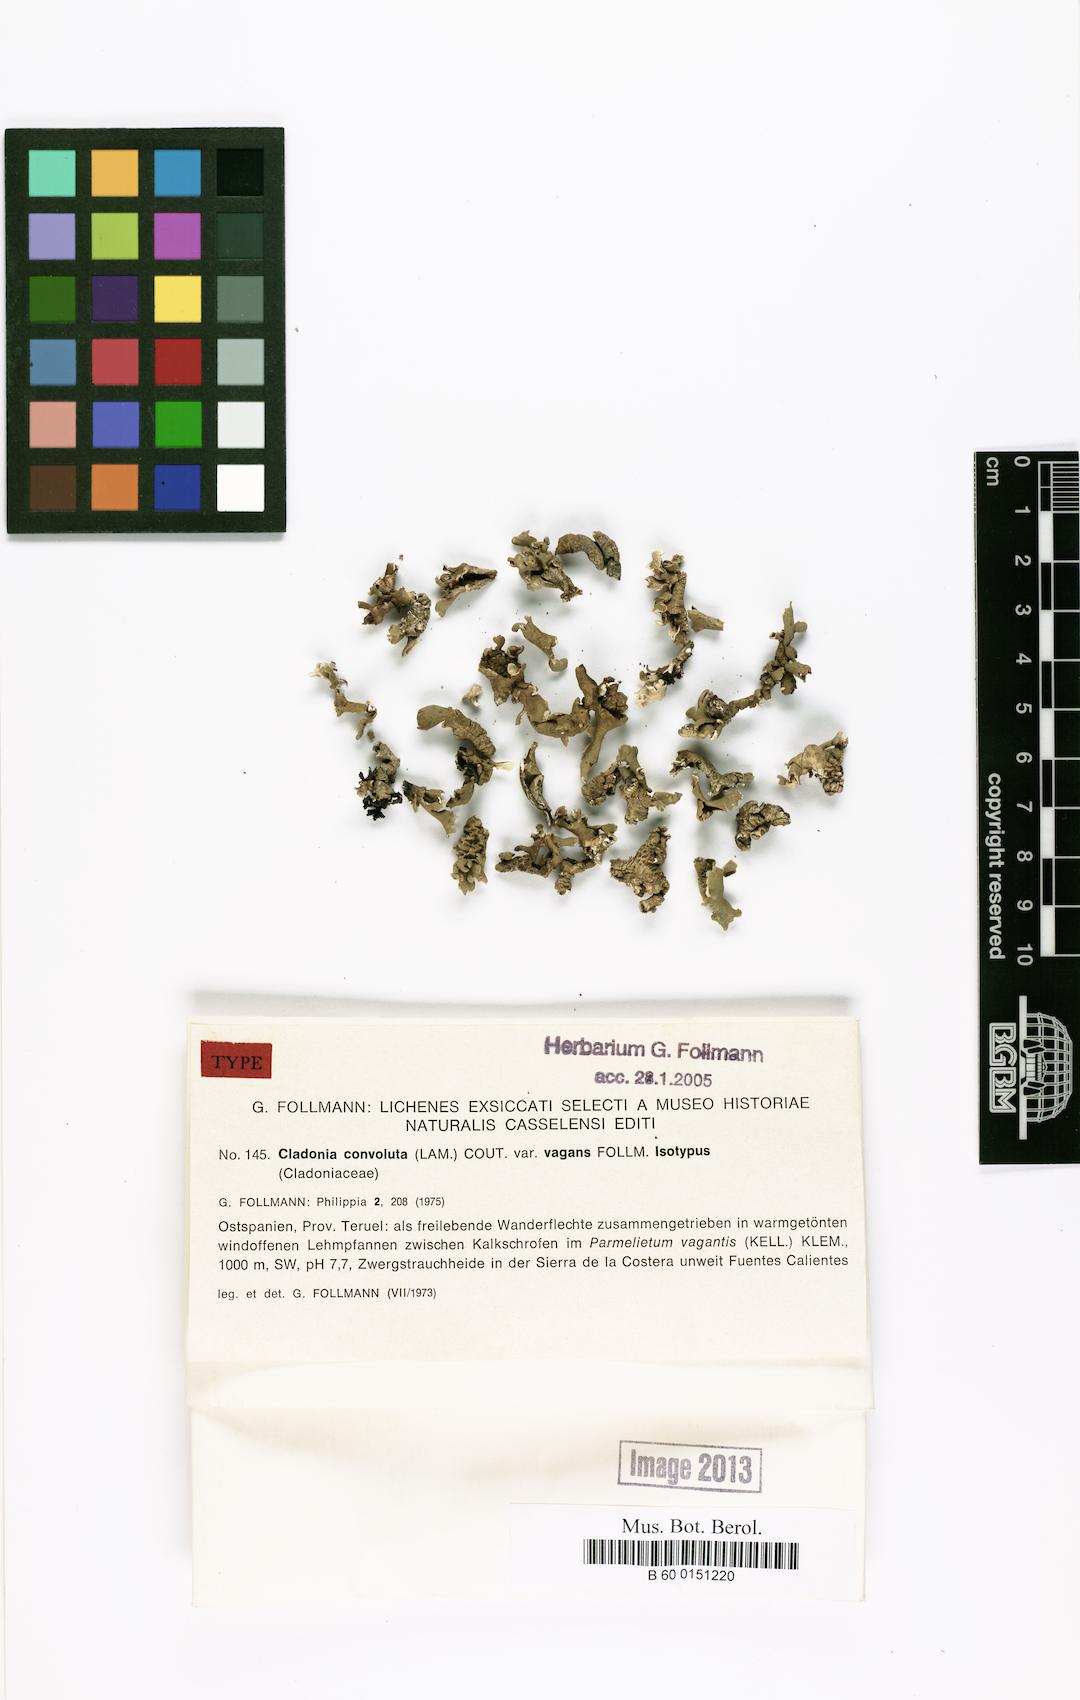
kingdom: Fungi
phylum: Ascomycota
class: Lecanoromycetes
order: Lecanorales
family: Cladoniaceae
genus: Cladonia
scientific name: Cladonia foliacea
